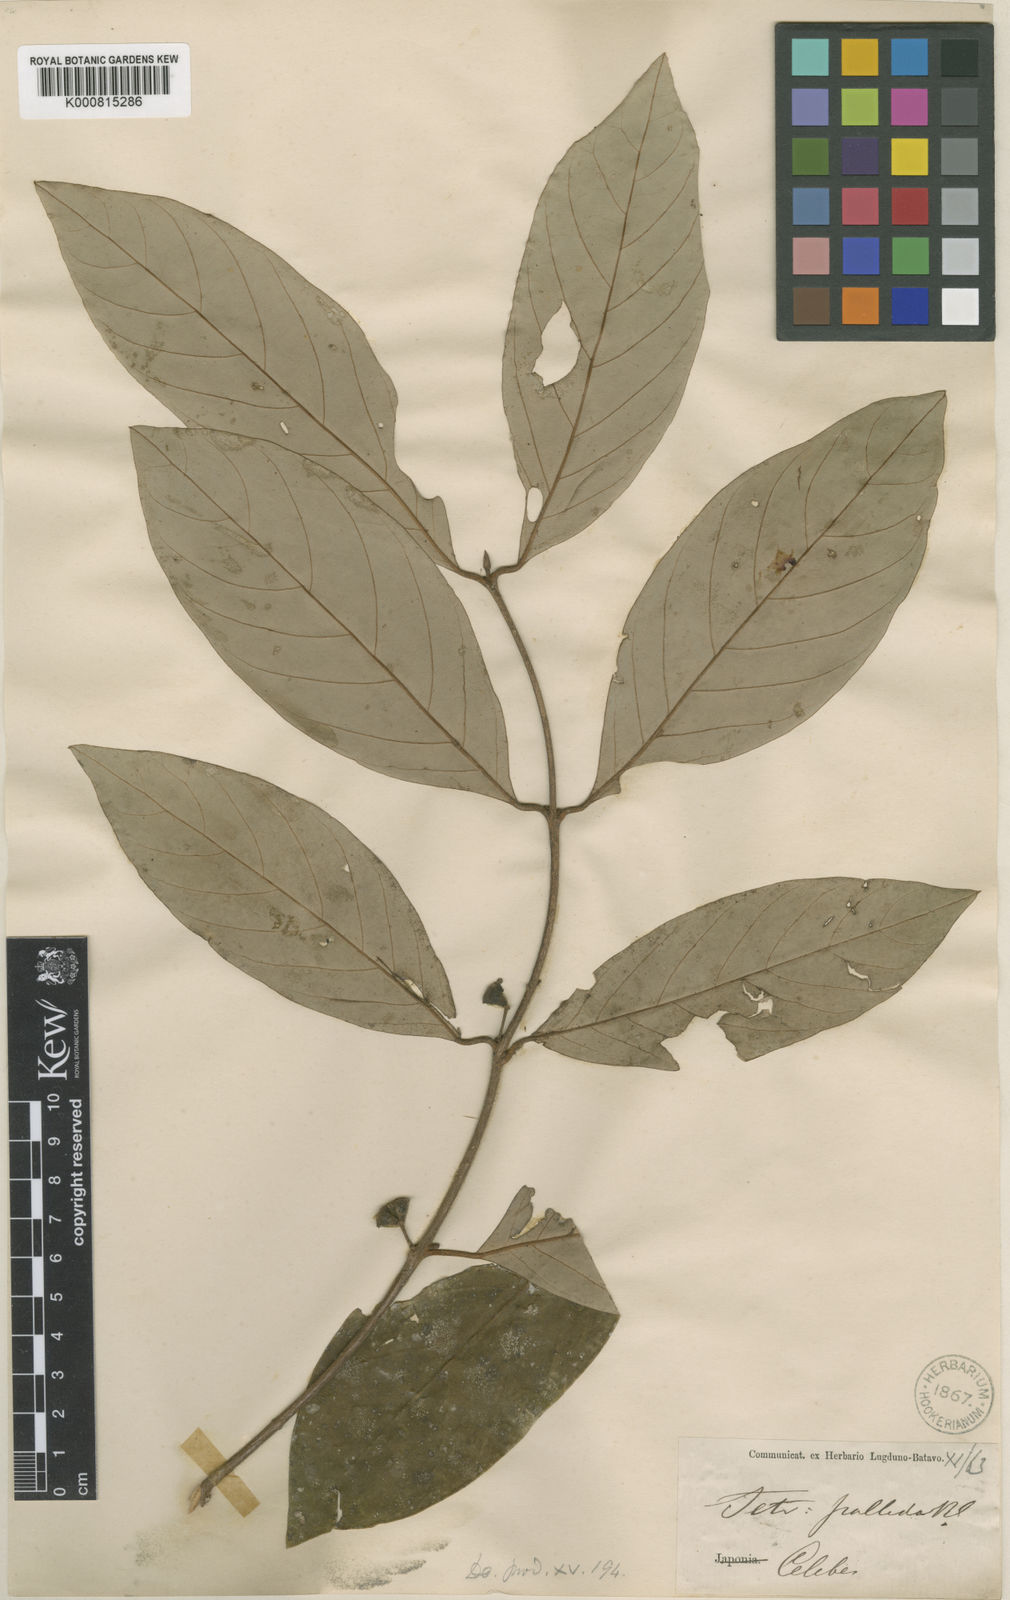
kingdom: Plantae
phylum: Tracheophyta
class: Magnoliopsida
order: Laurales
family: Lauraceae
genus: Litsea
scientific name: Litsea pallida
